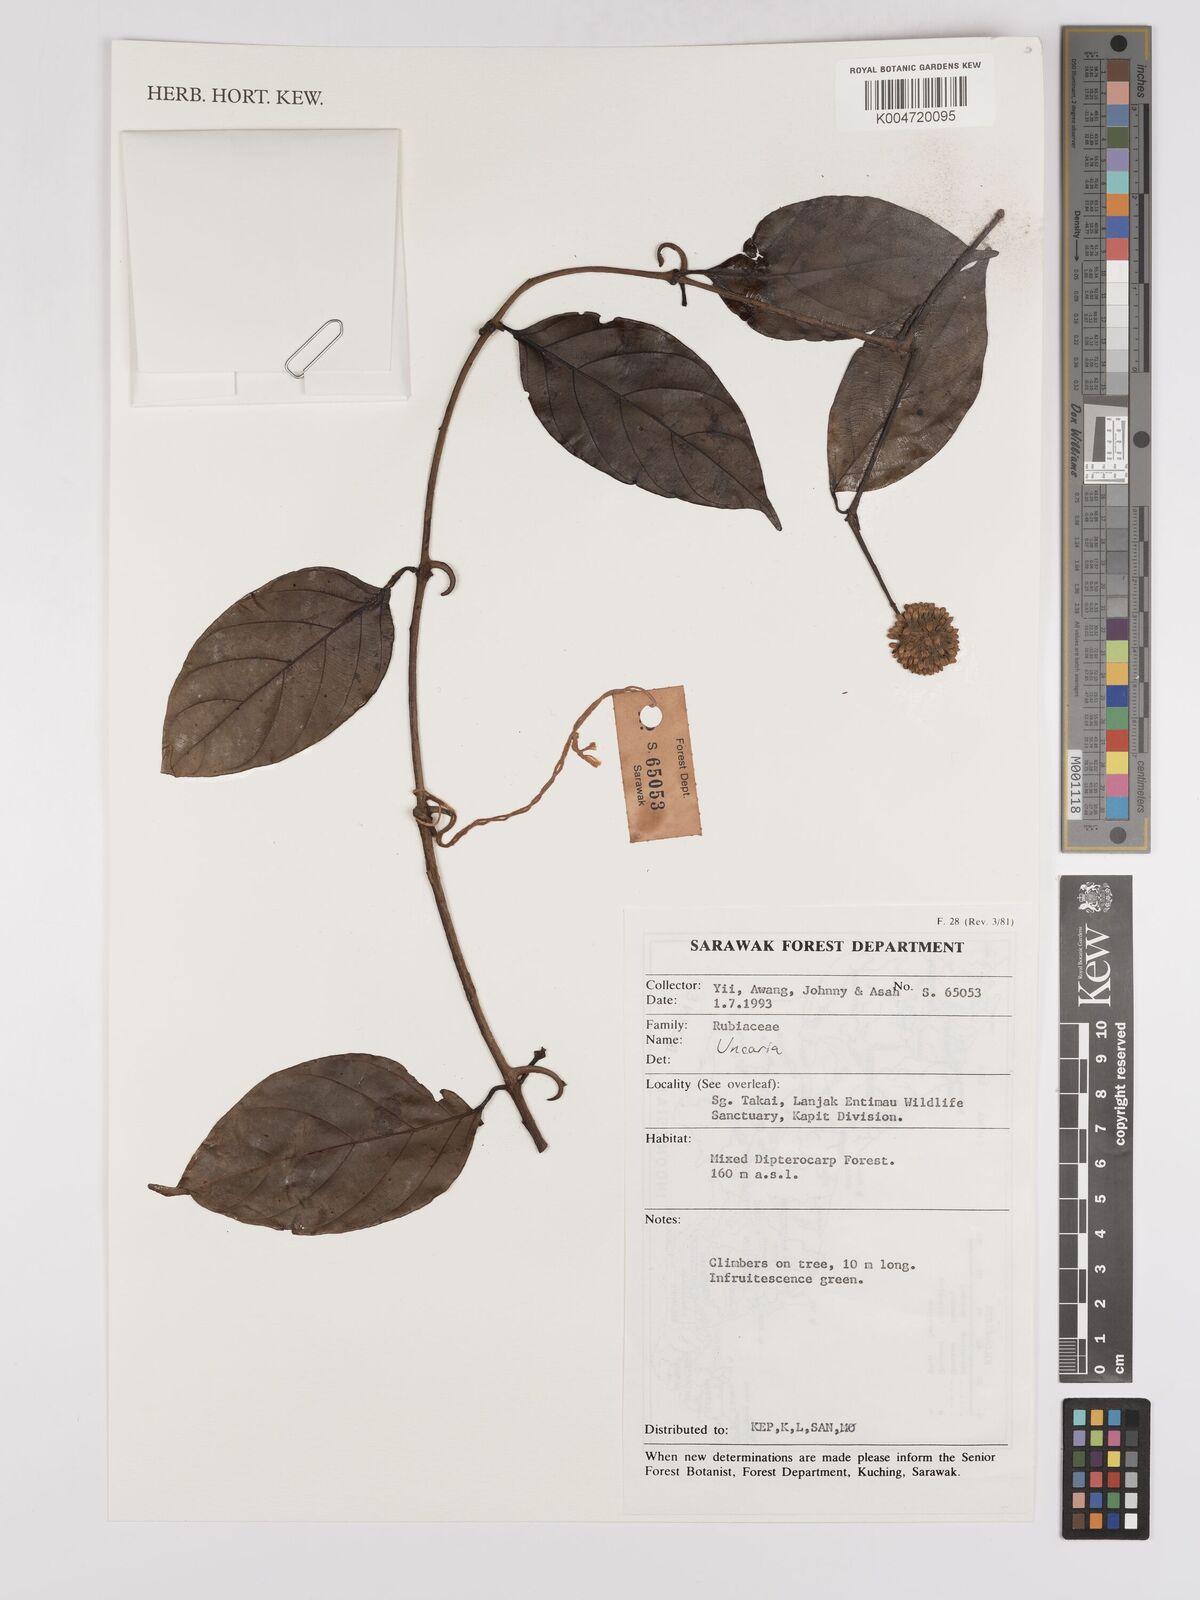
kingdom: Plantae
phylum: Tracheophyta
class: Magnoliopsida
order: Gentianales
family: Rubiaceae
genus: Uncaria
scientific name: Uncaria
